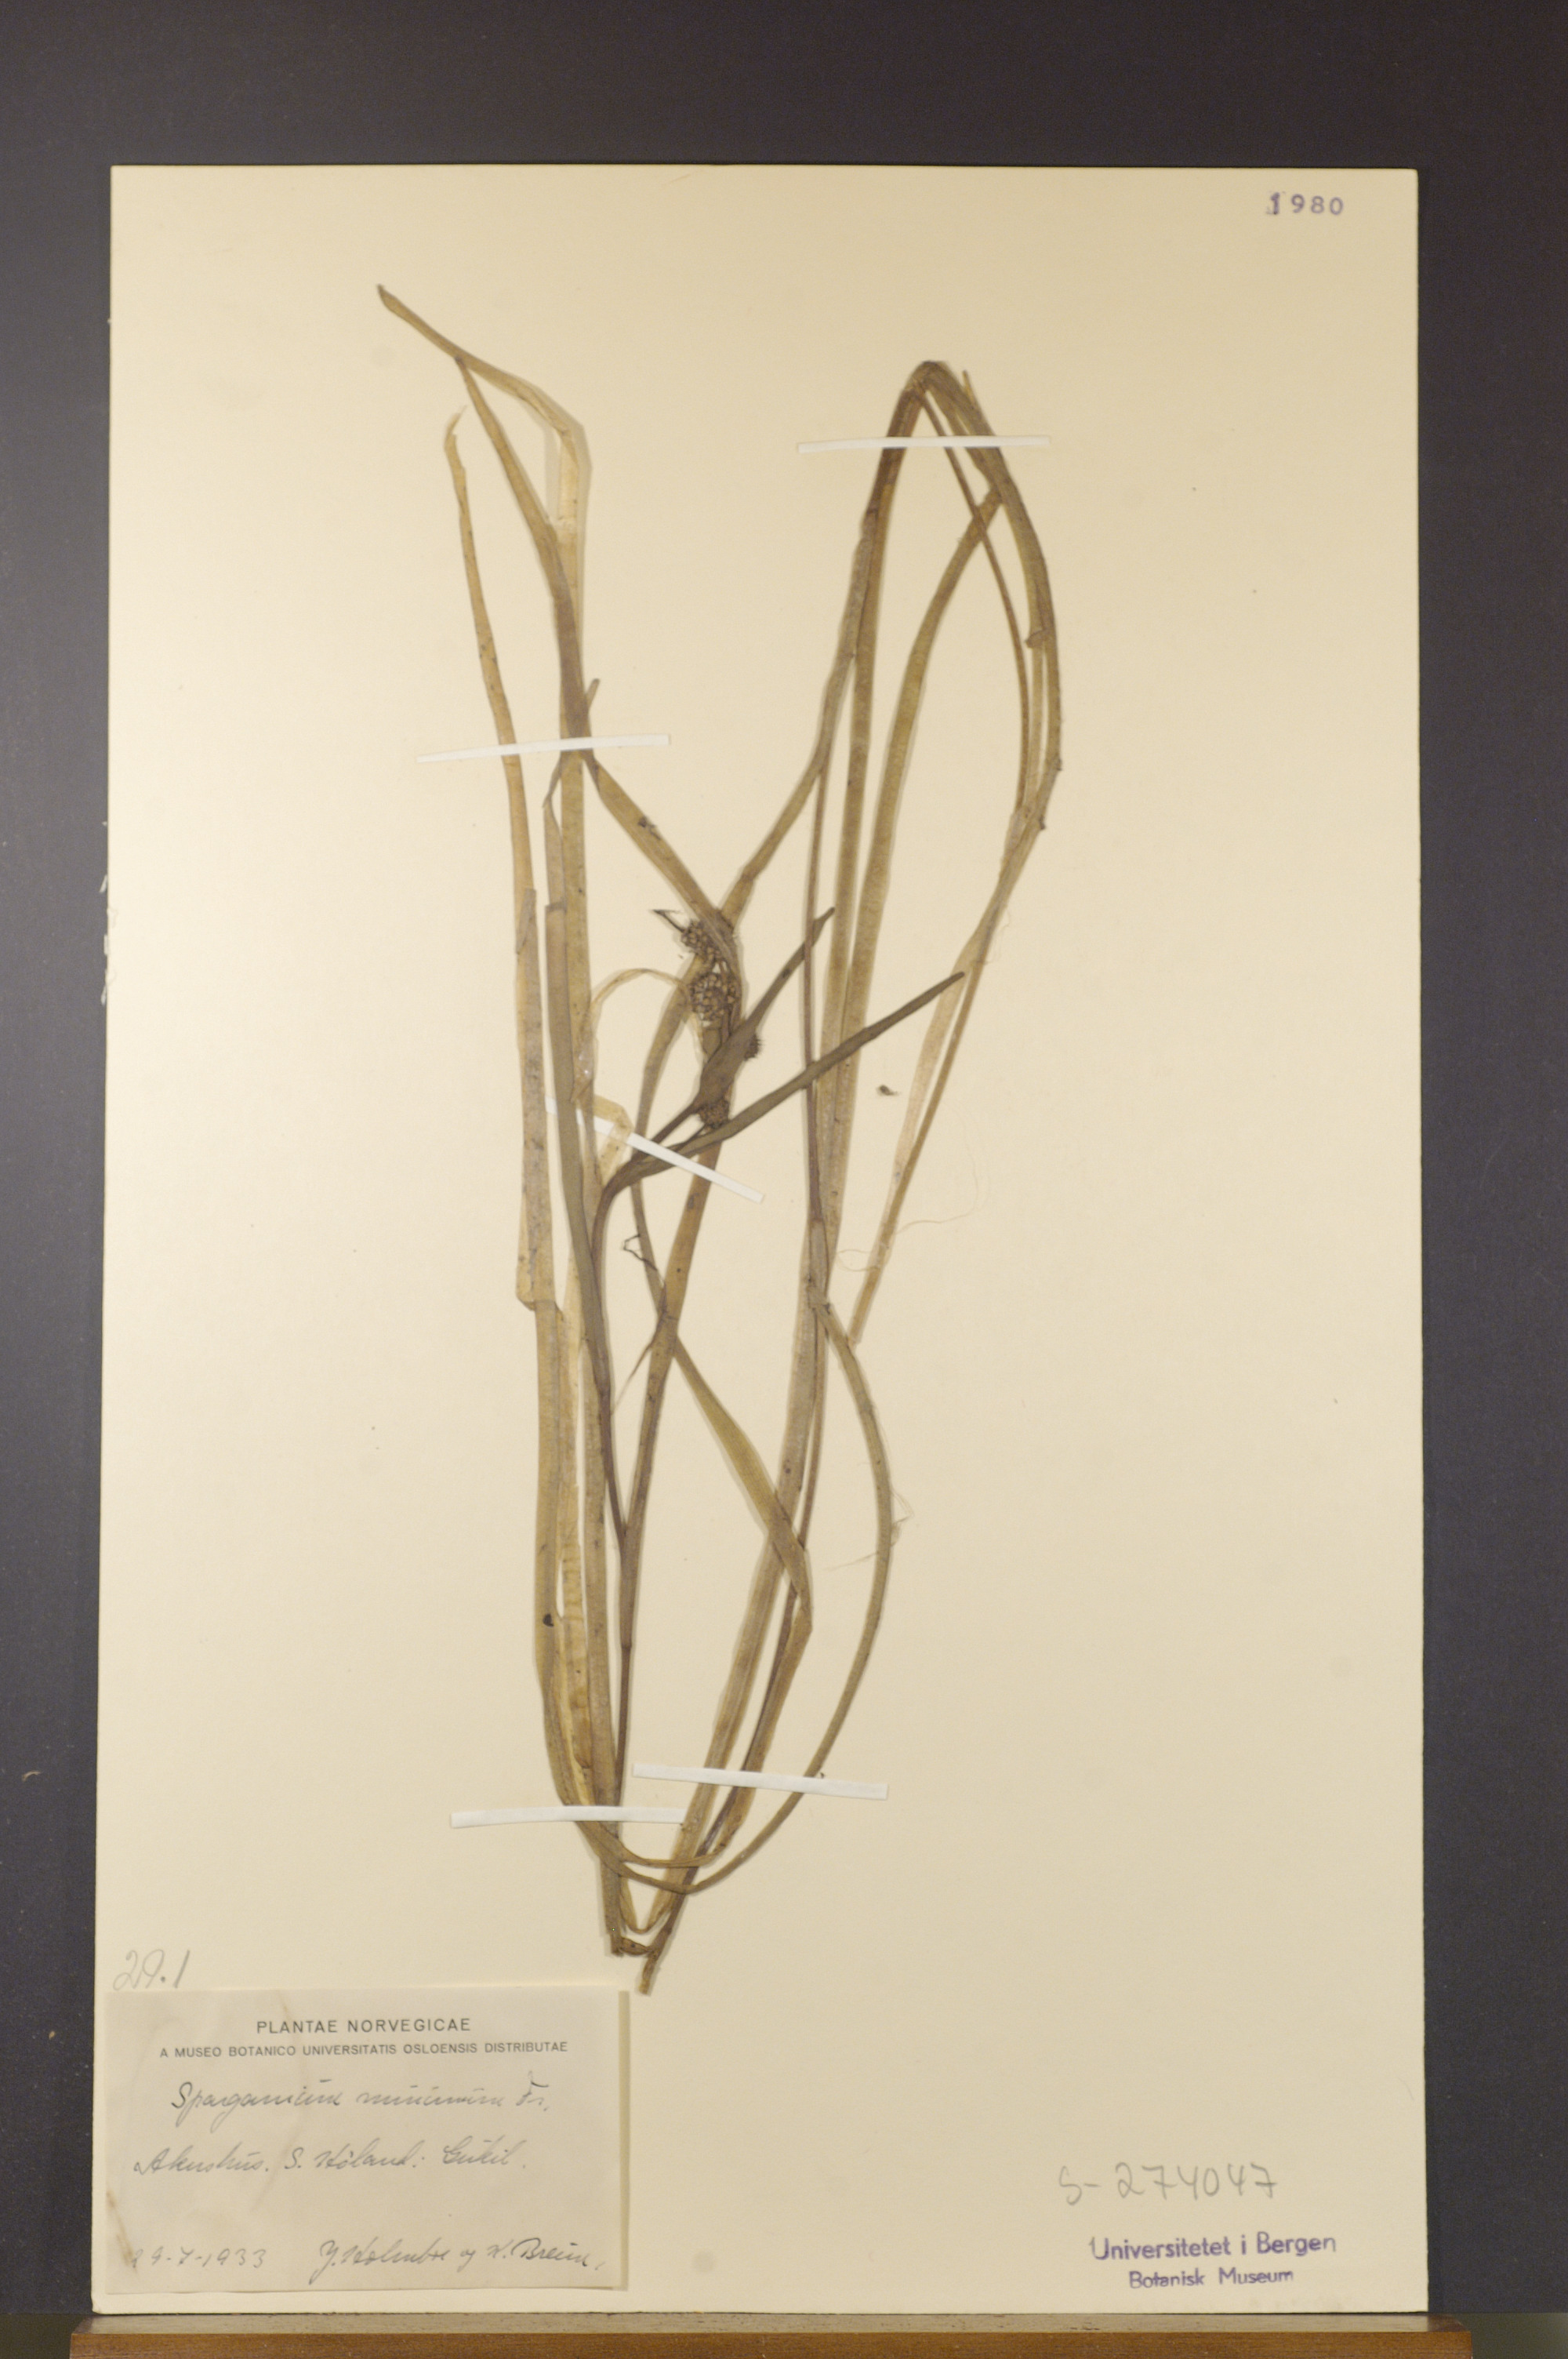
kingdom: Plantae
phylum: Tracheophyta
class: Liliopsida
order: Poales
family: Typhaceae
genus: Sparganium
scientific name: Sparganium natans
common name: Least bur-reed
